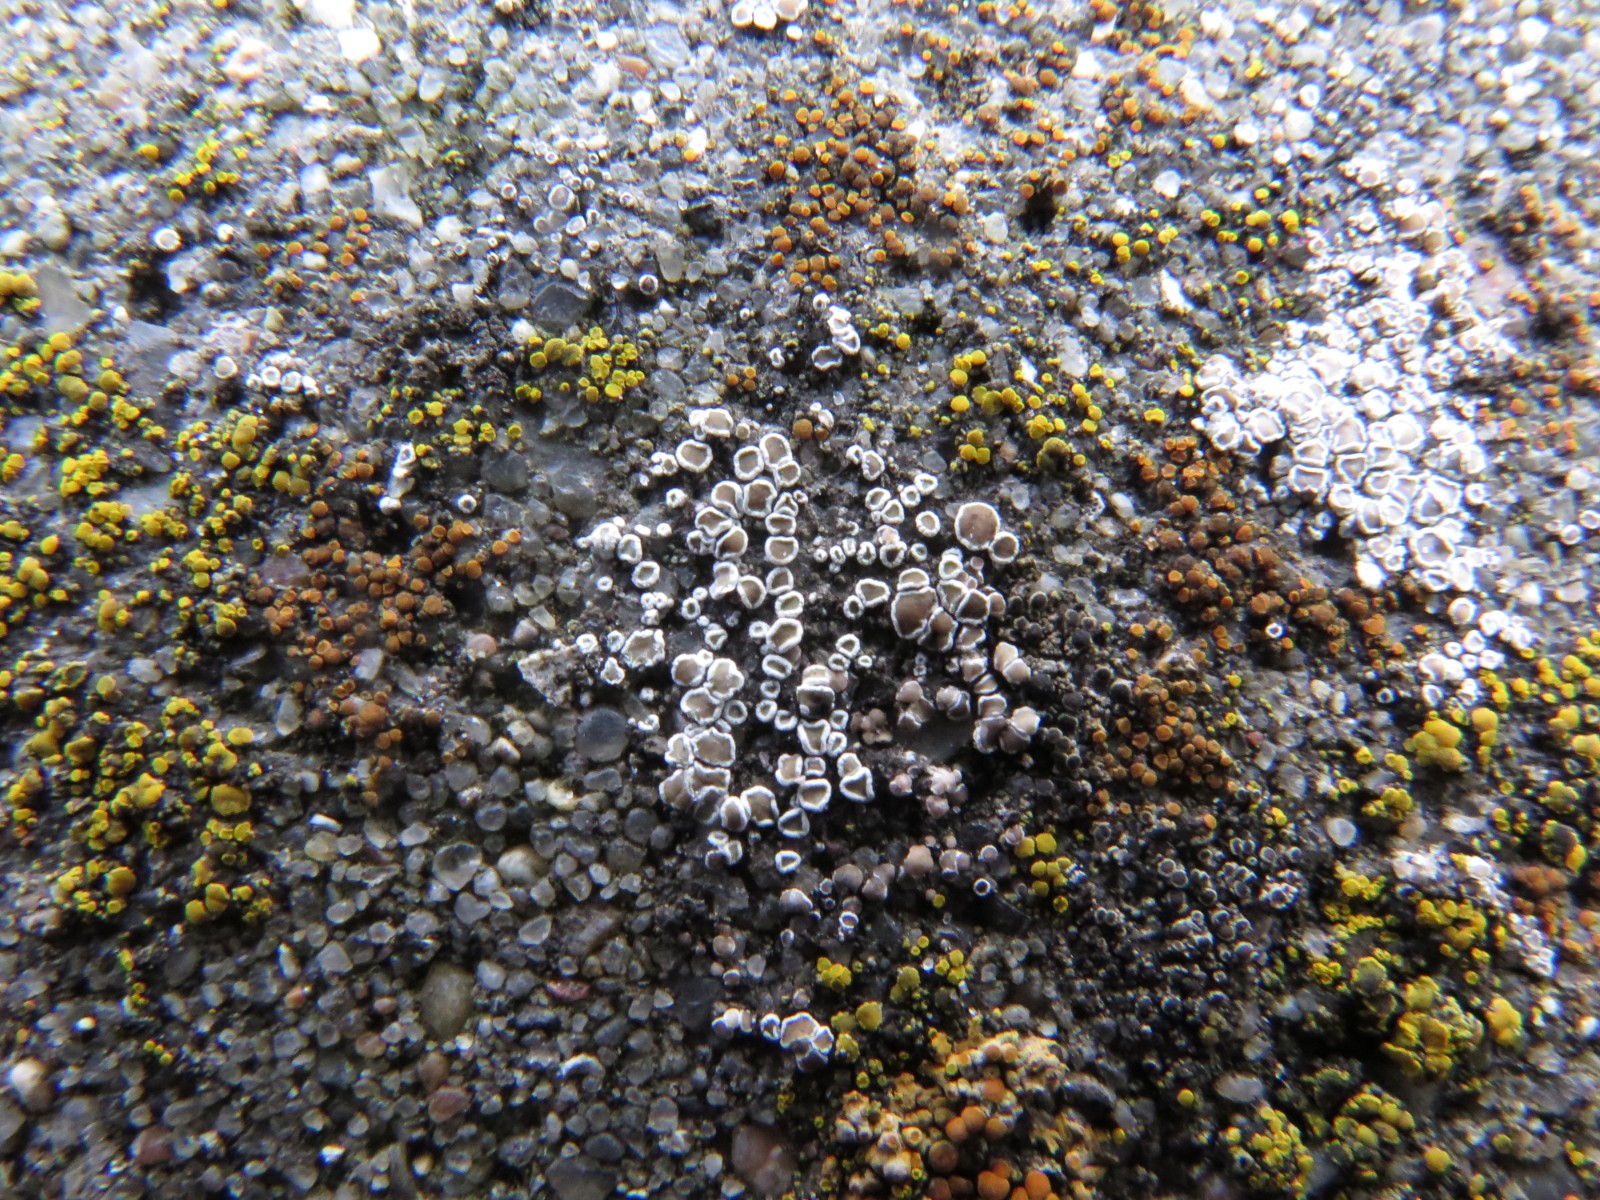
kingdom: Fungi
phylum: Ascomycota
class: Lecanoromycetes
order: Lecanorales
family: Lecanoraceae
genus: Polyozosia
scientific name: Polyozosia dispersa
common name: spredt kantskivelav
